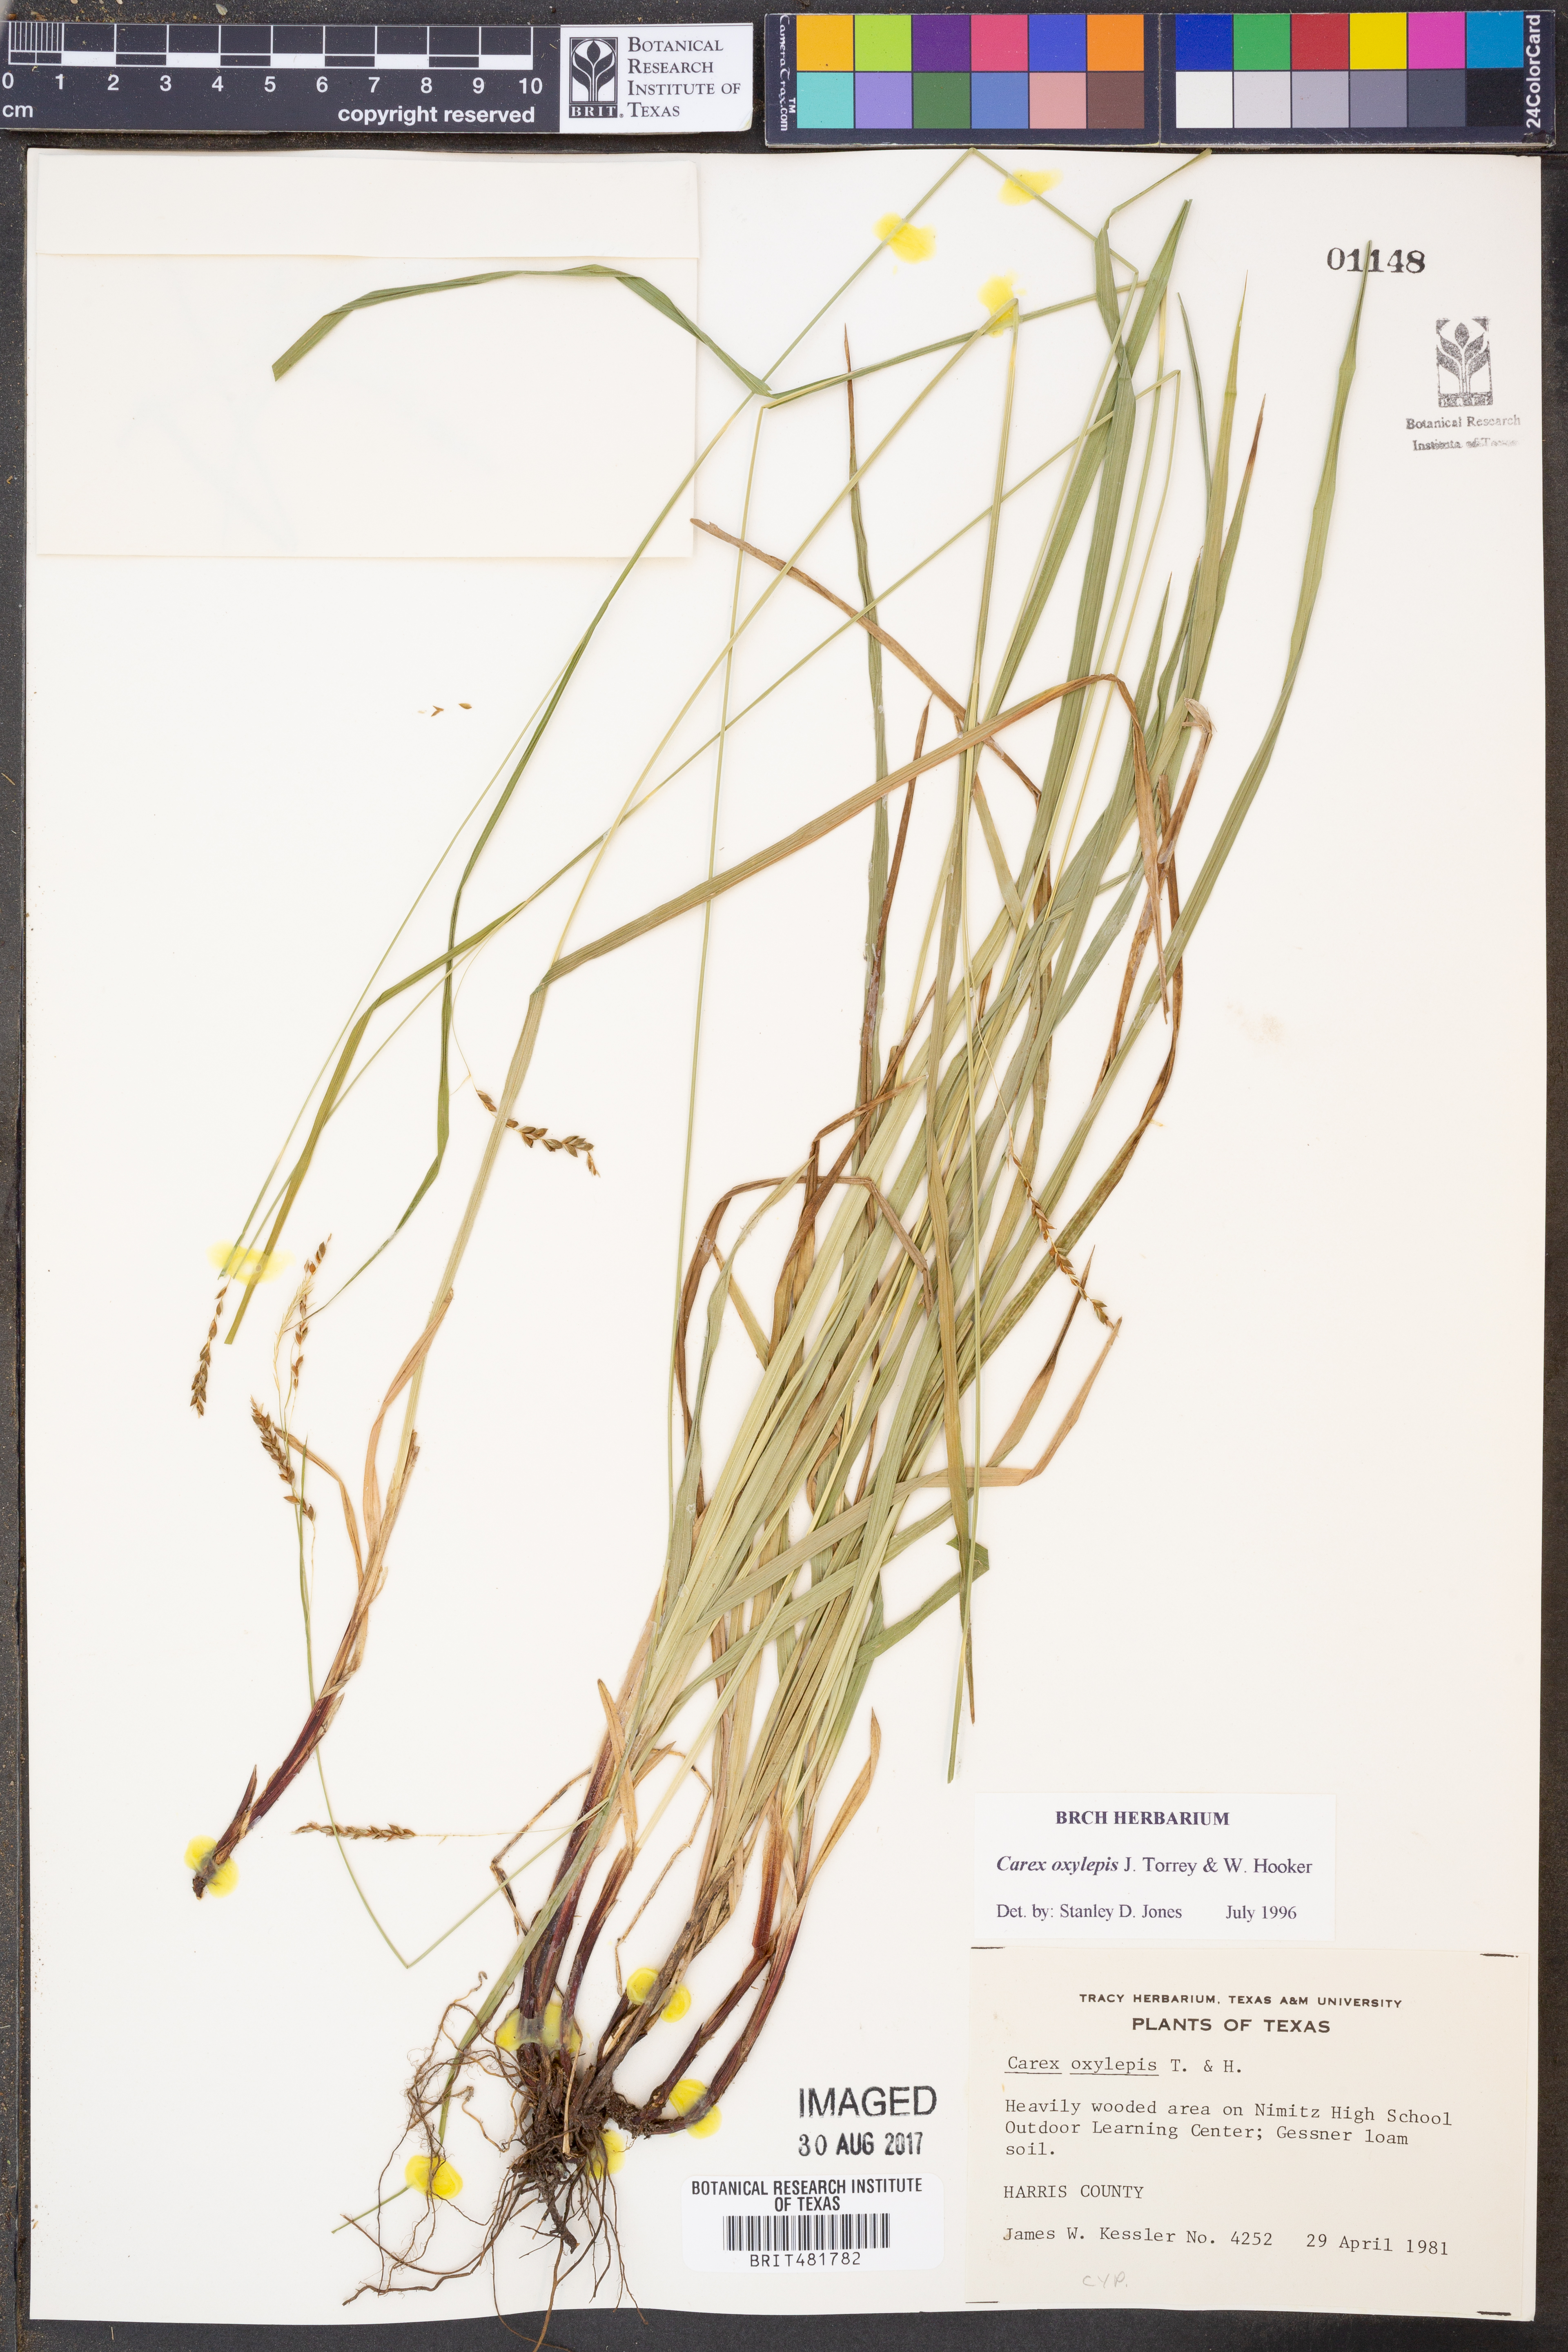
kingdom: Plantae
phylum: Tracheophyta
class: Liliopsida
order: Poales
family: Cyperaceae
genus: Carex
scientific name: Carex oxylepis
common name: Sharpscale sedge
